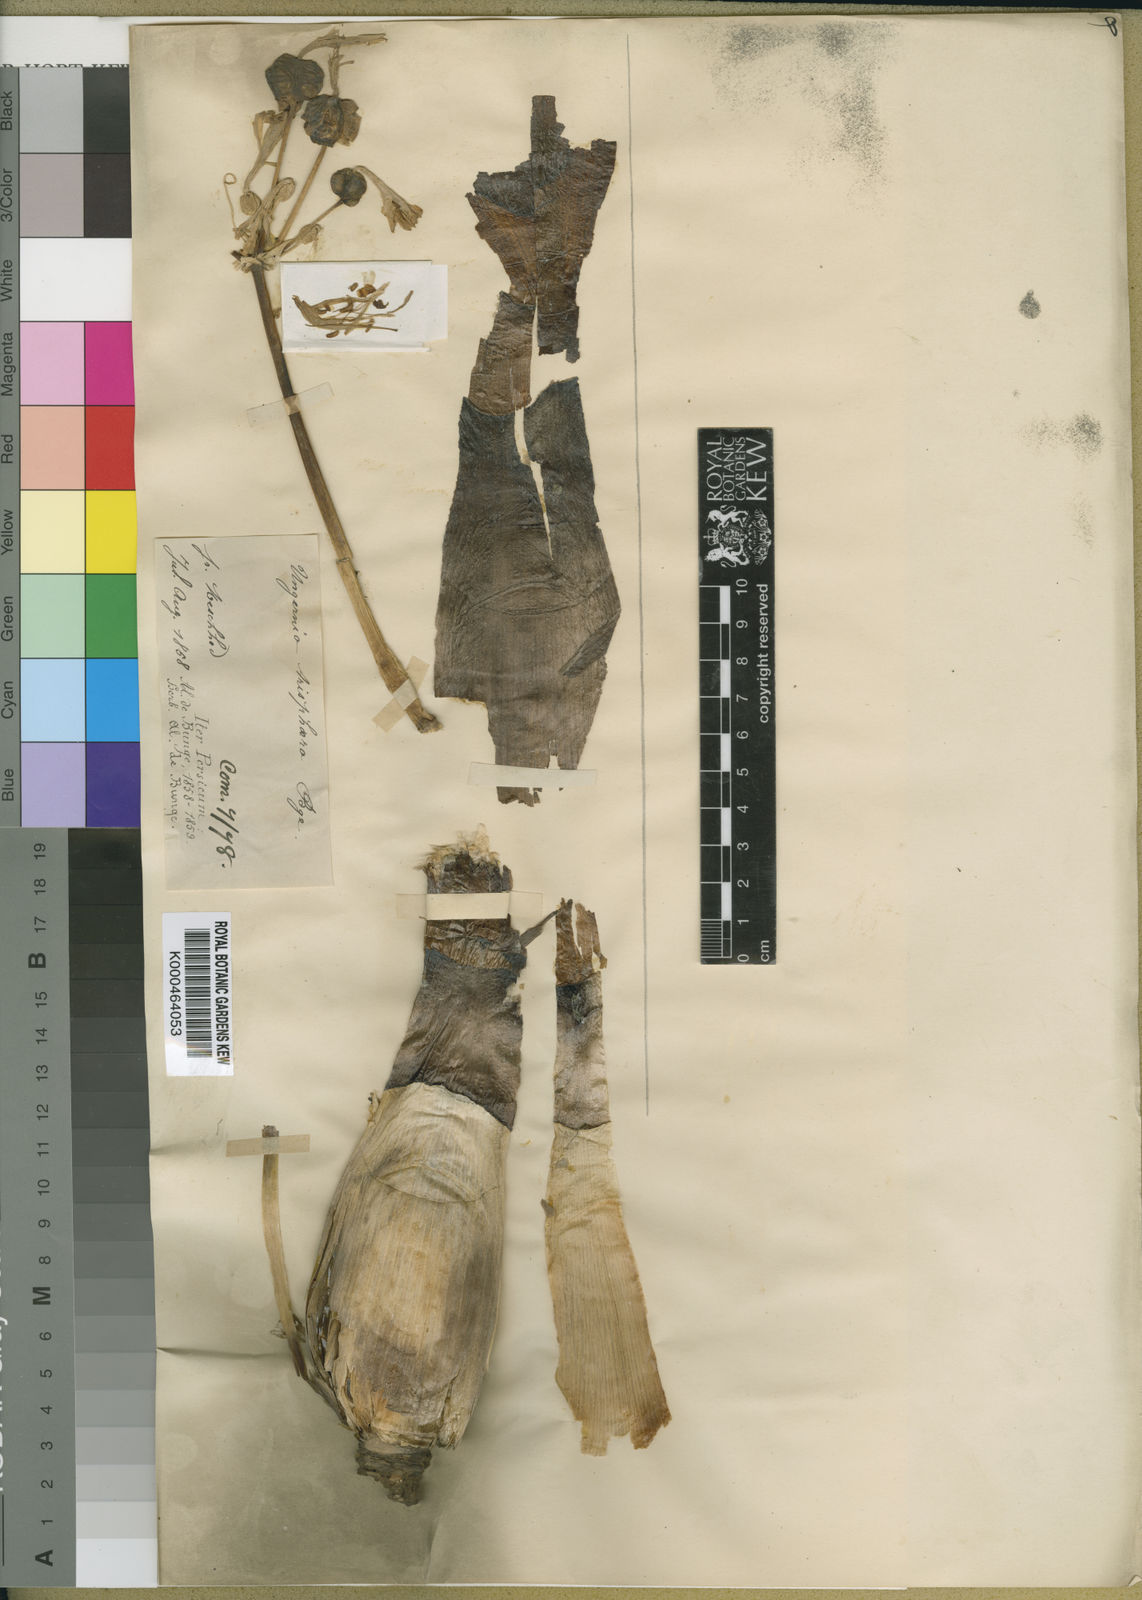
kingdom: Plantae
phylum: Tracheophyta
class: Liliopsida
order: Asparagales
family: Amaryllidaceae
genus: Ungernia
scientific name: Ungernia trisphaera
